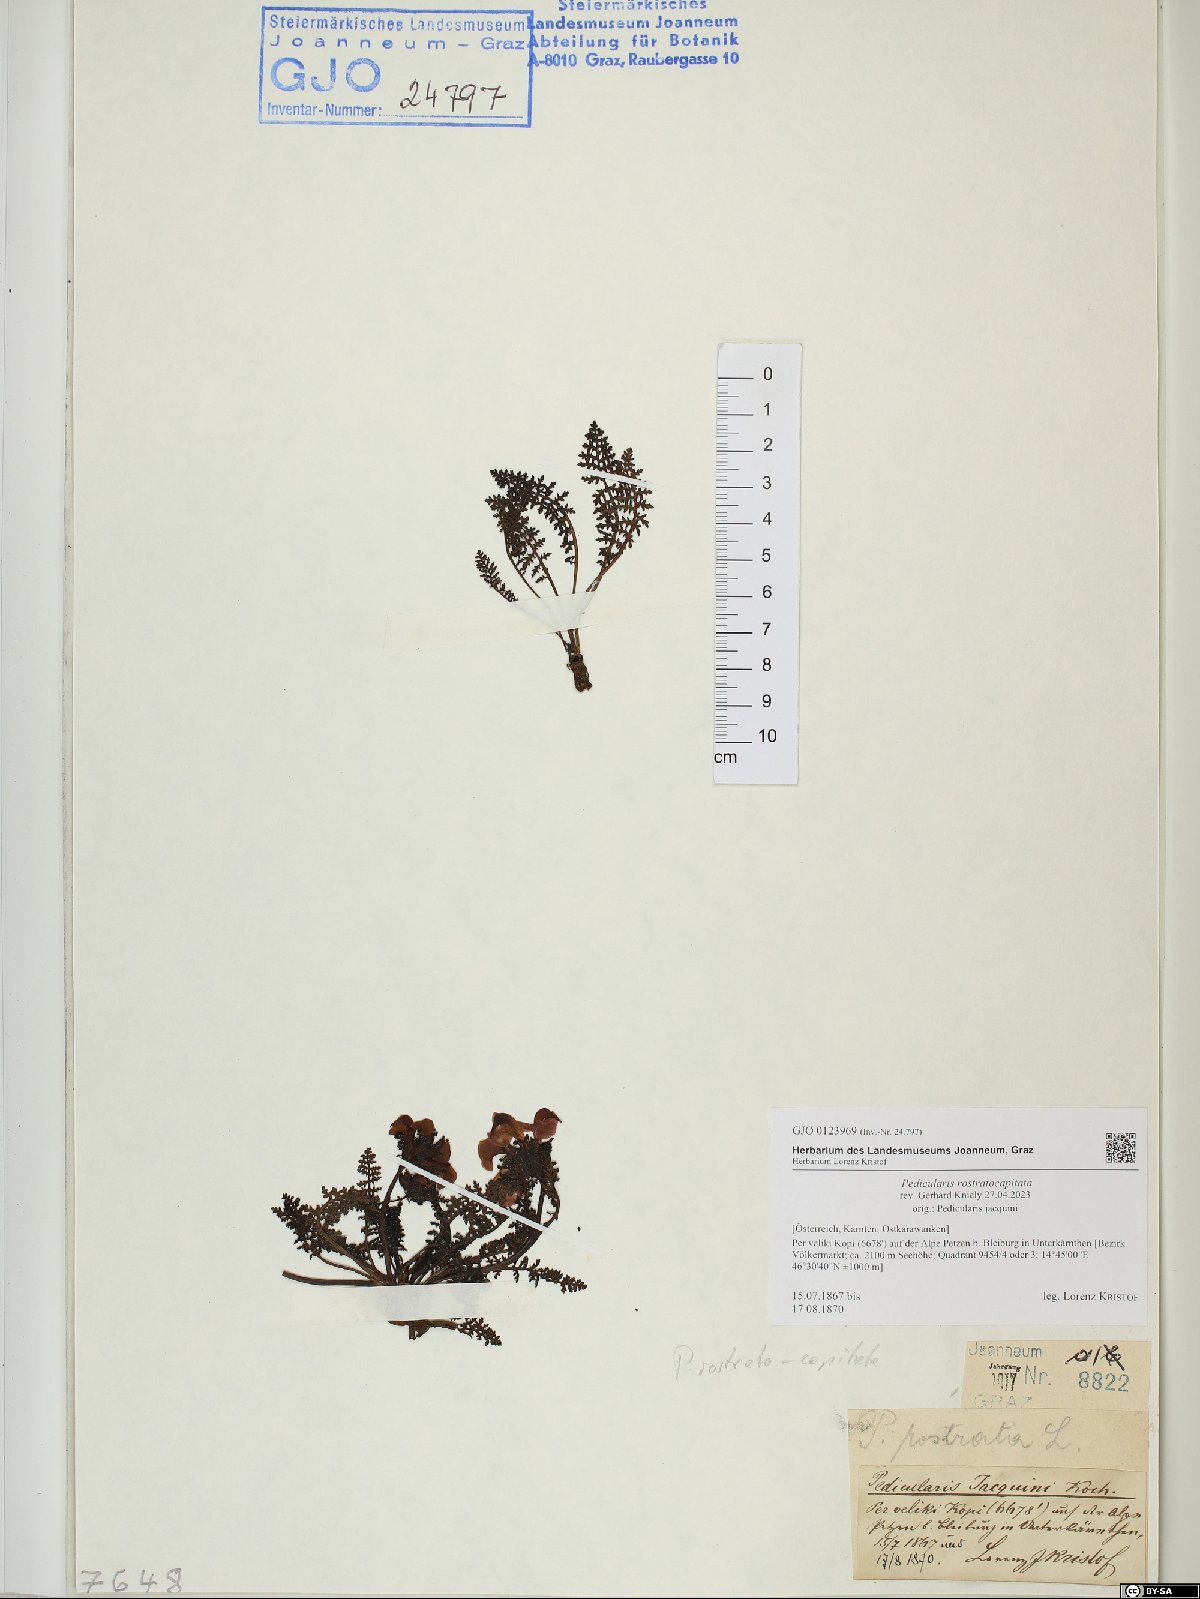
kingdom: Plantae
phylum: Tracheophyta
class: Magnoliopsida
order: Lamiales
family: Orobanchaceae
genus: Pedicularis
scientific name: Pedicularis rostratocapitata
